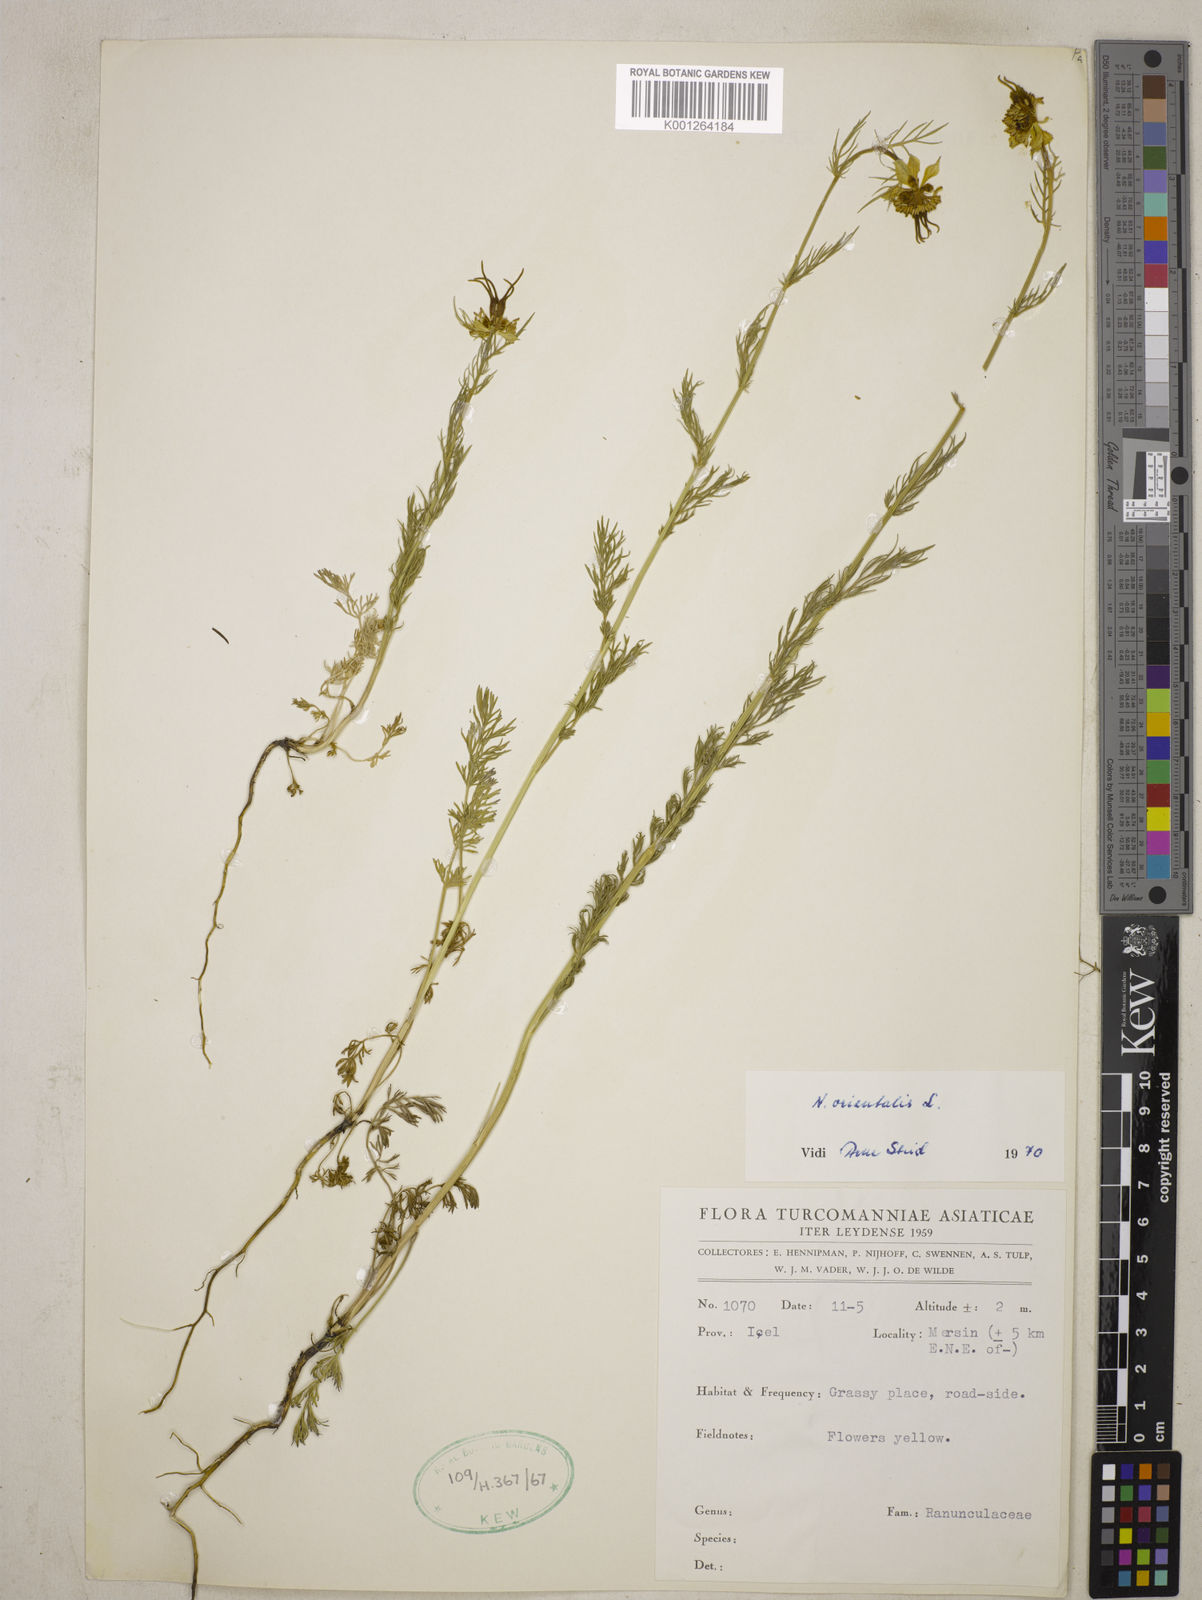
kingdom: Plantae
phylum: Tracheophyta
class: Magnoliopsida
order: Ranunculales
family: Ranunculaceae
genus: Nigella
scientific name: Nigella orientalis
